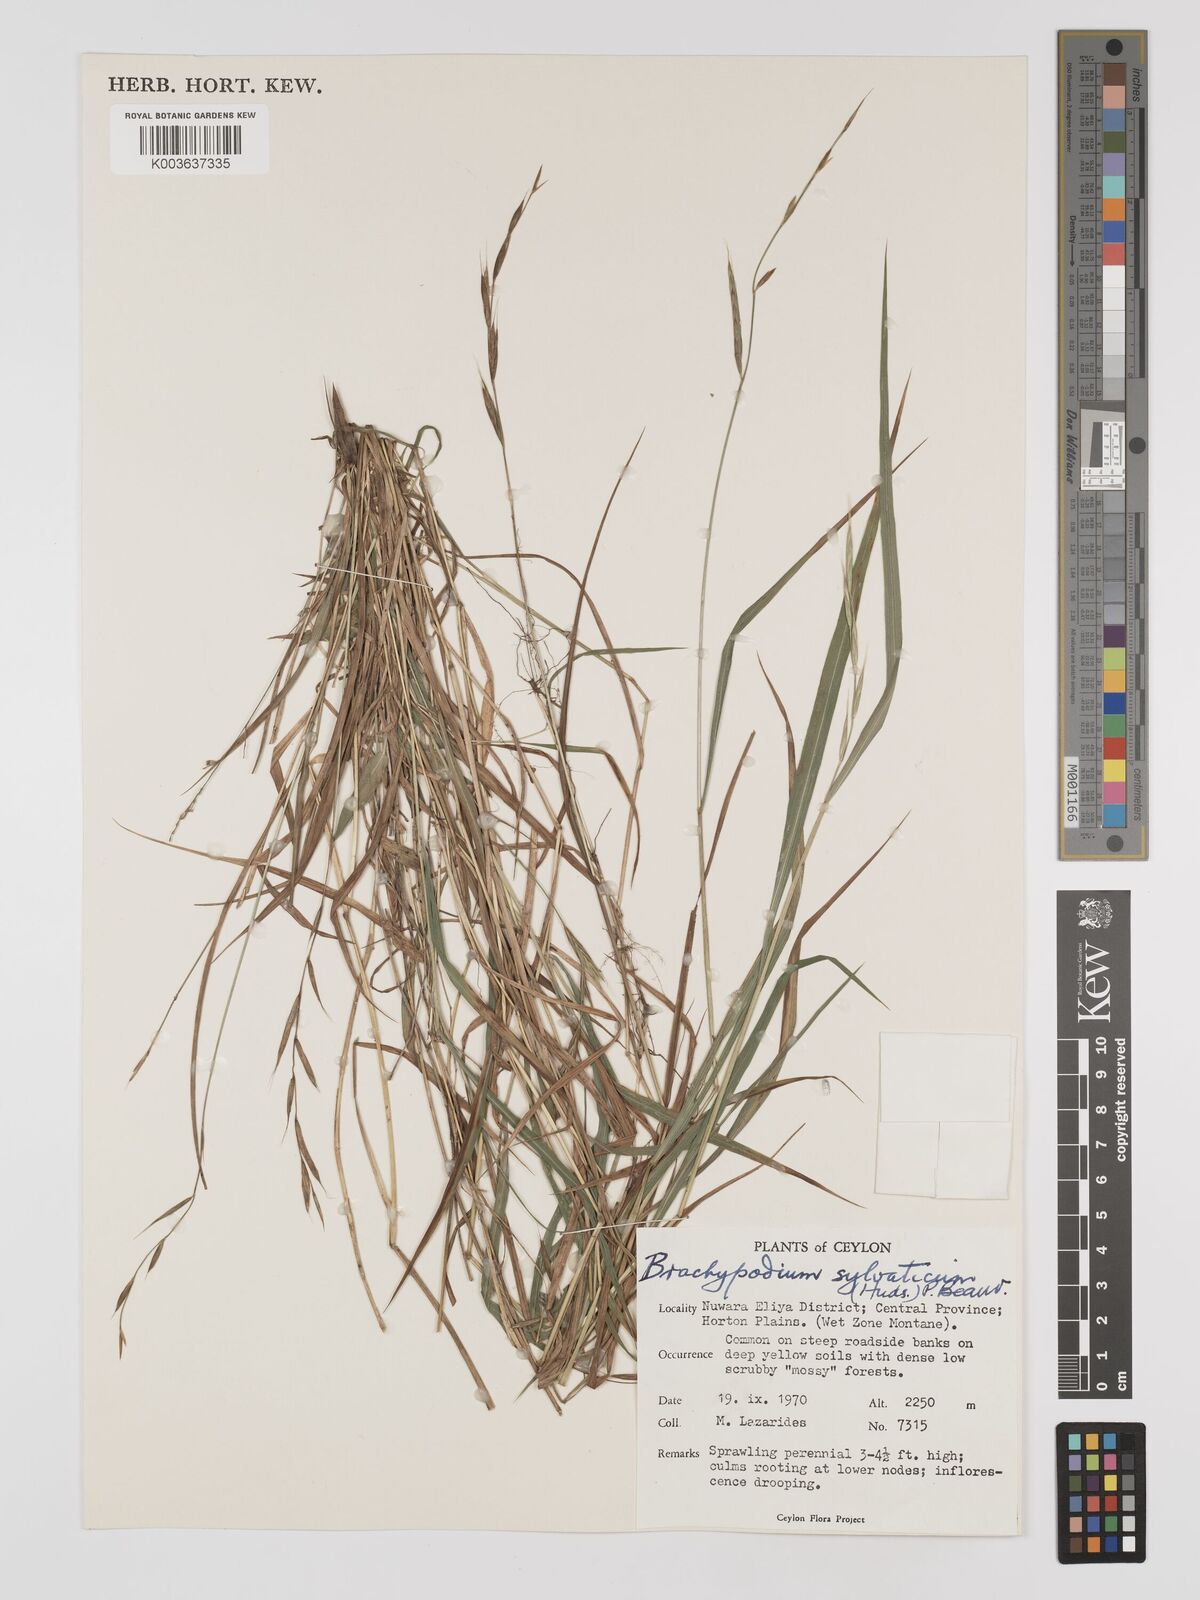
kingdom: Plantae
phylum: Tracheophyta
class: Liliopsida
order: Poales
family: Poaceae
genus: Brachypodium
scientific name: Brachypodium sylvaticum
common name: False-brome
